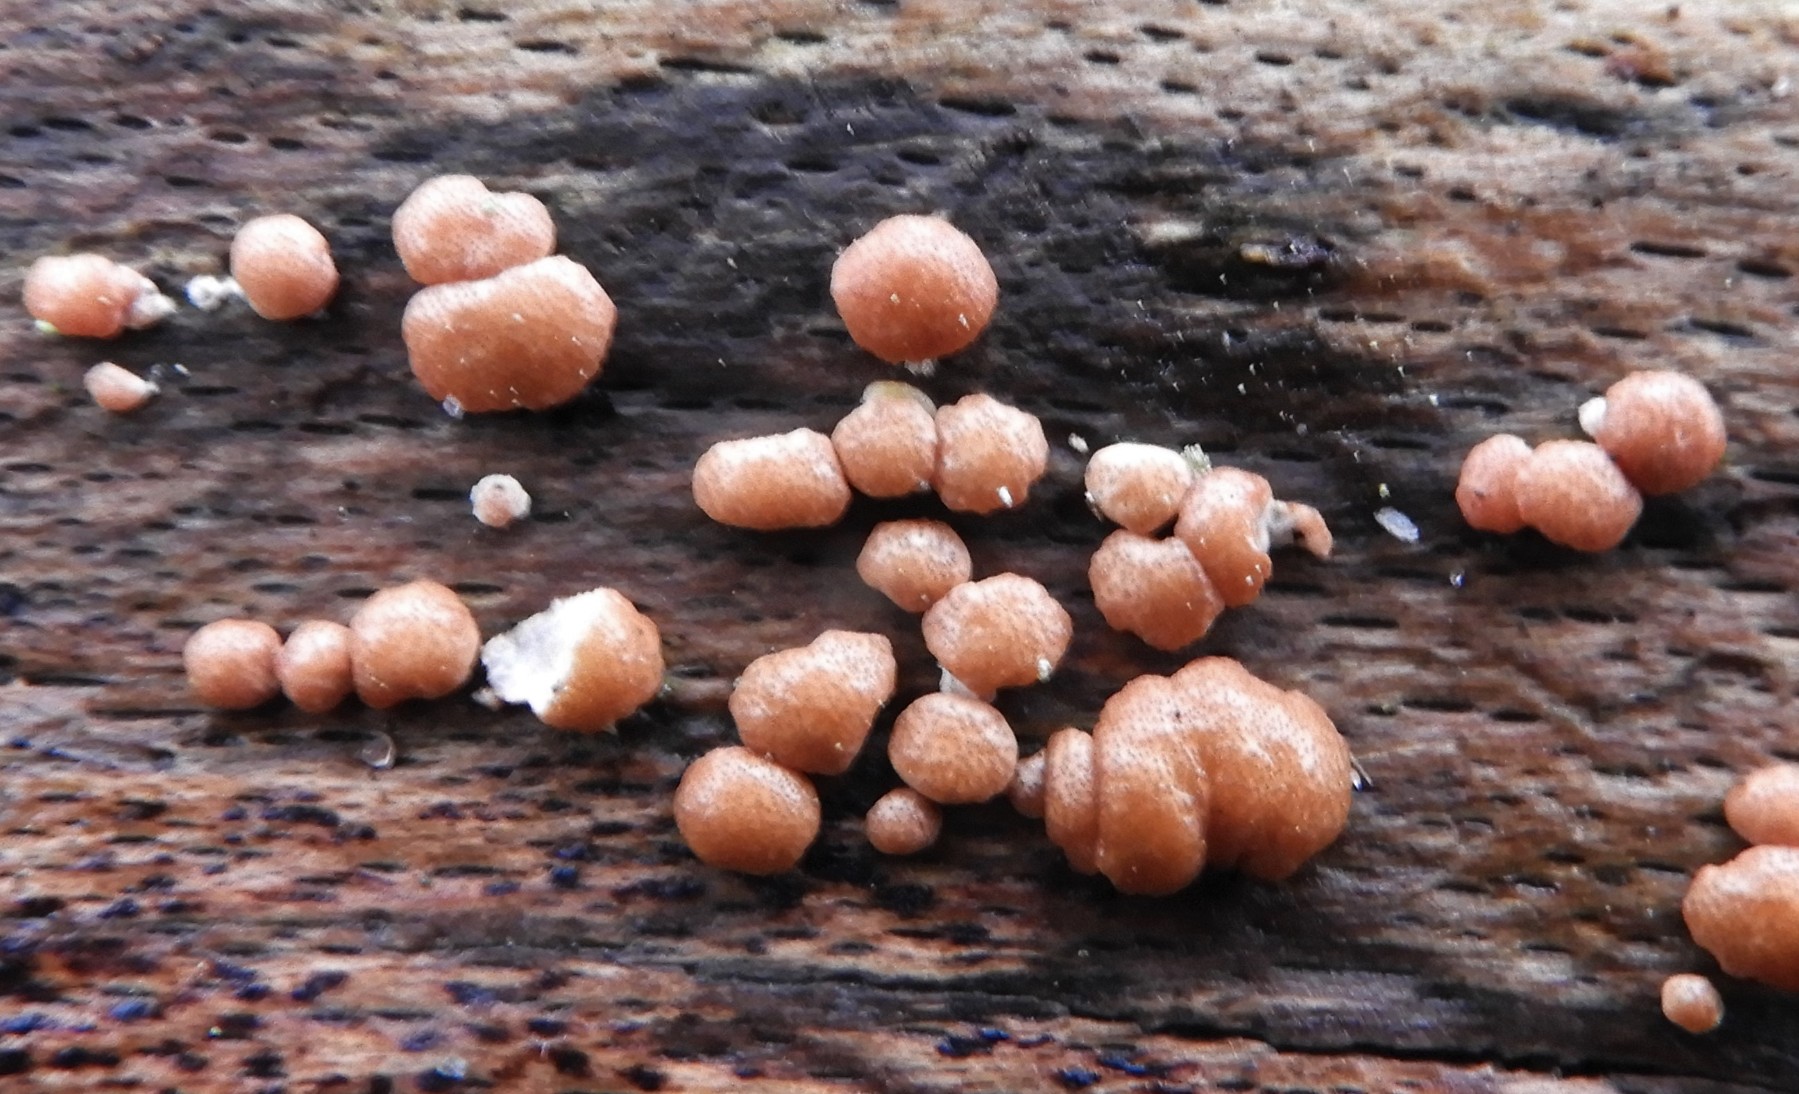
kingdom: Fungi
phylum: Ascomycota
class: Sordariomycetes
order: Hypocreales
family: Hypocreaceae
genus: Trichoderma
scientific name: Trichoderma europaeum
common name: rosabrun kødkerne
